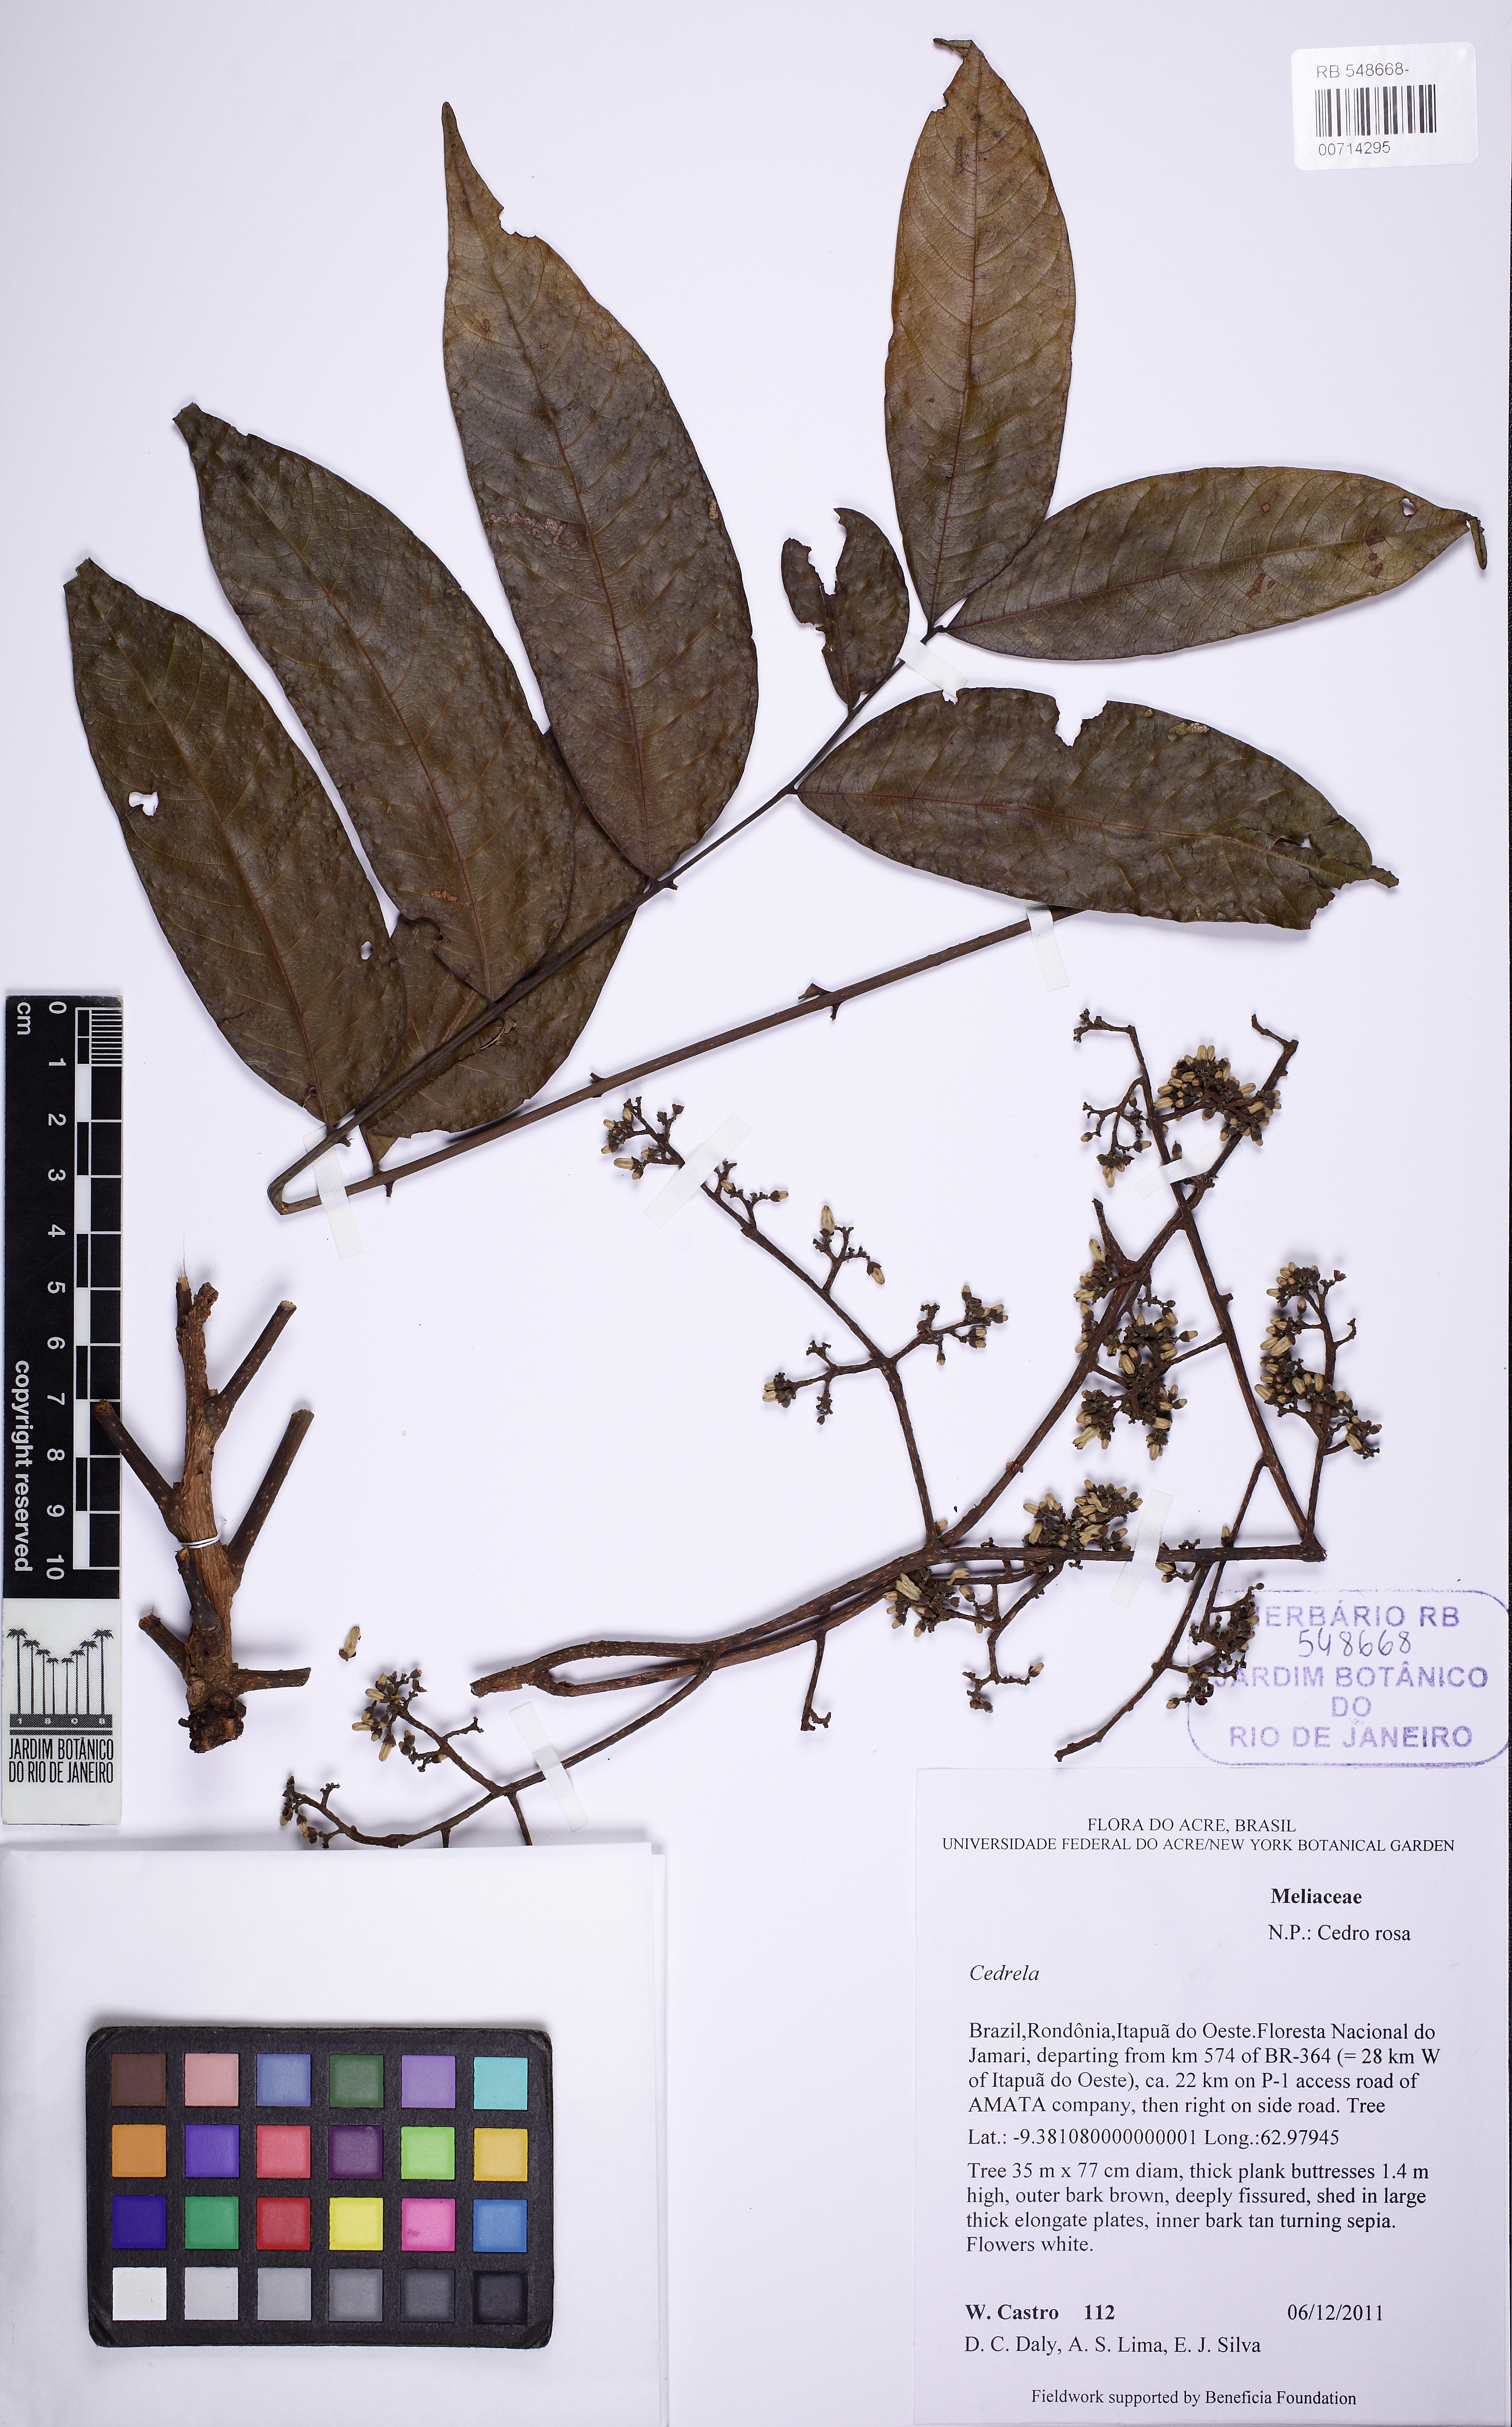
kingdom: Plantae
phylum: Tracheophyta
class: Magnoliopsida
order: Sapindales
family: Meliaceae
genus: Cedrela
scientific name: Cedrela
